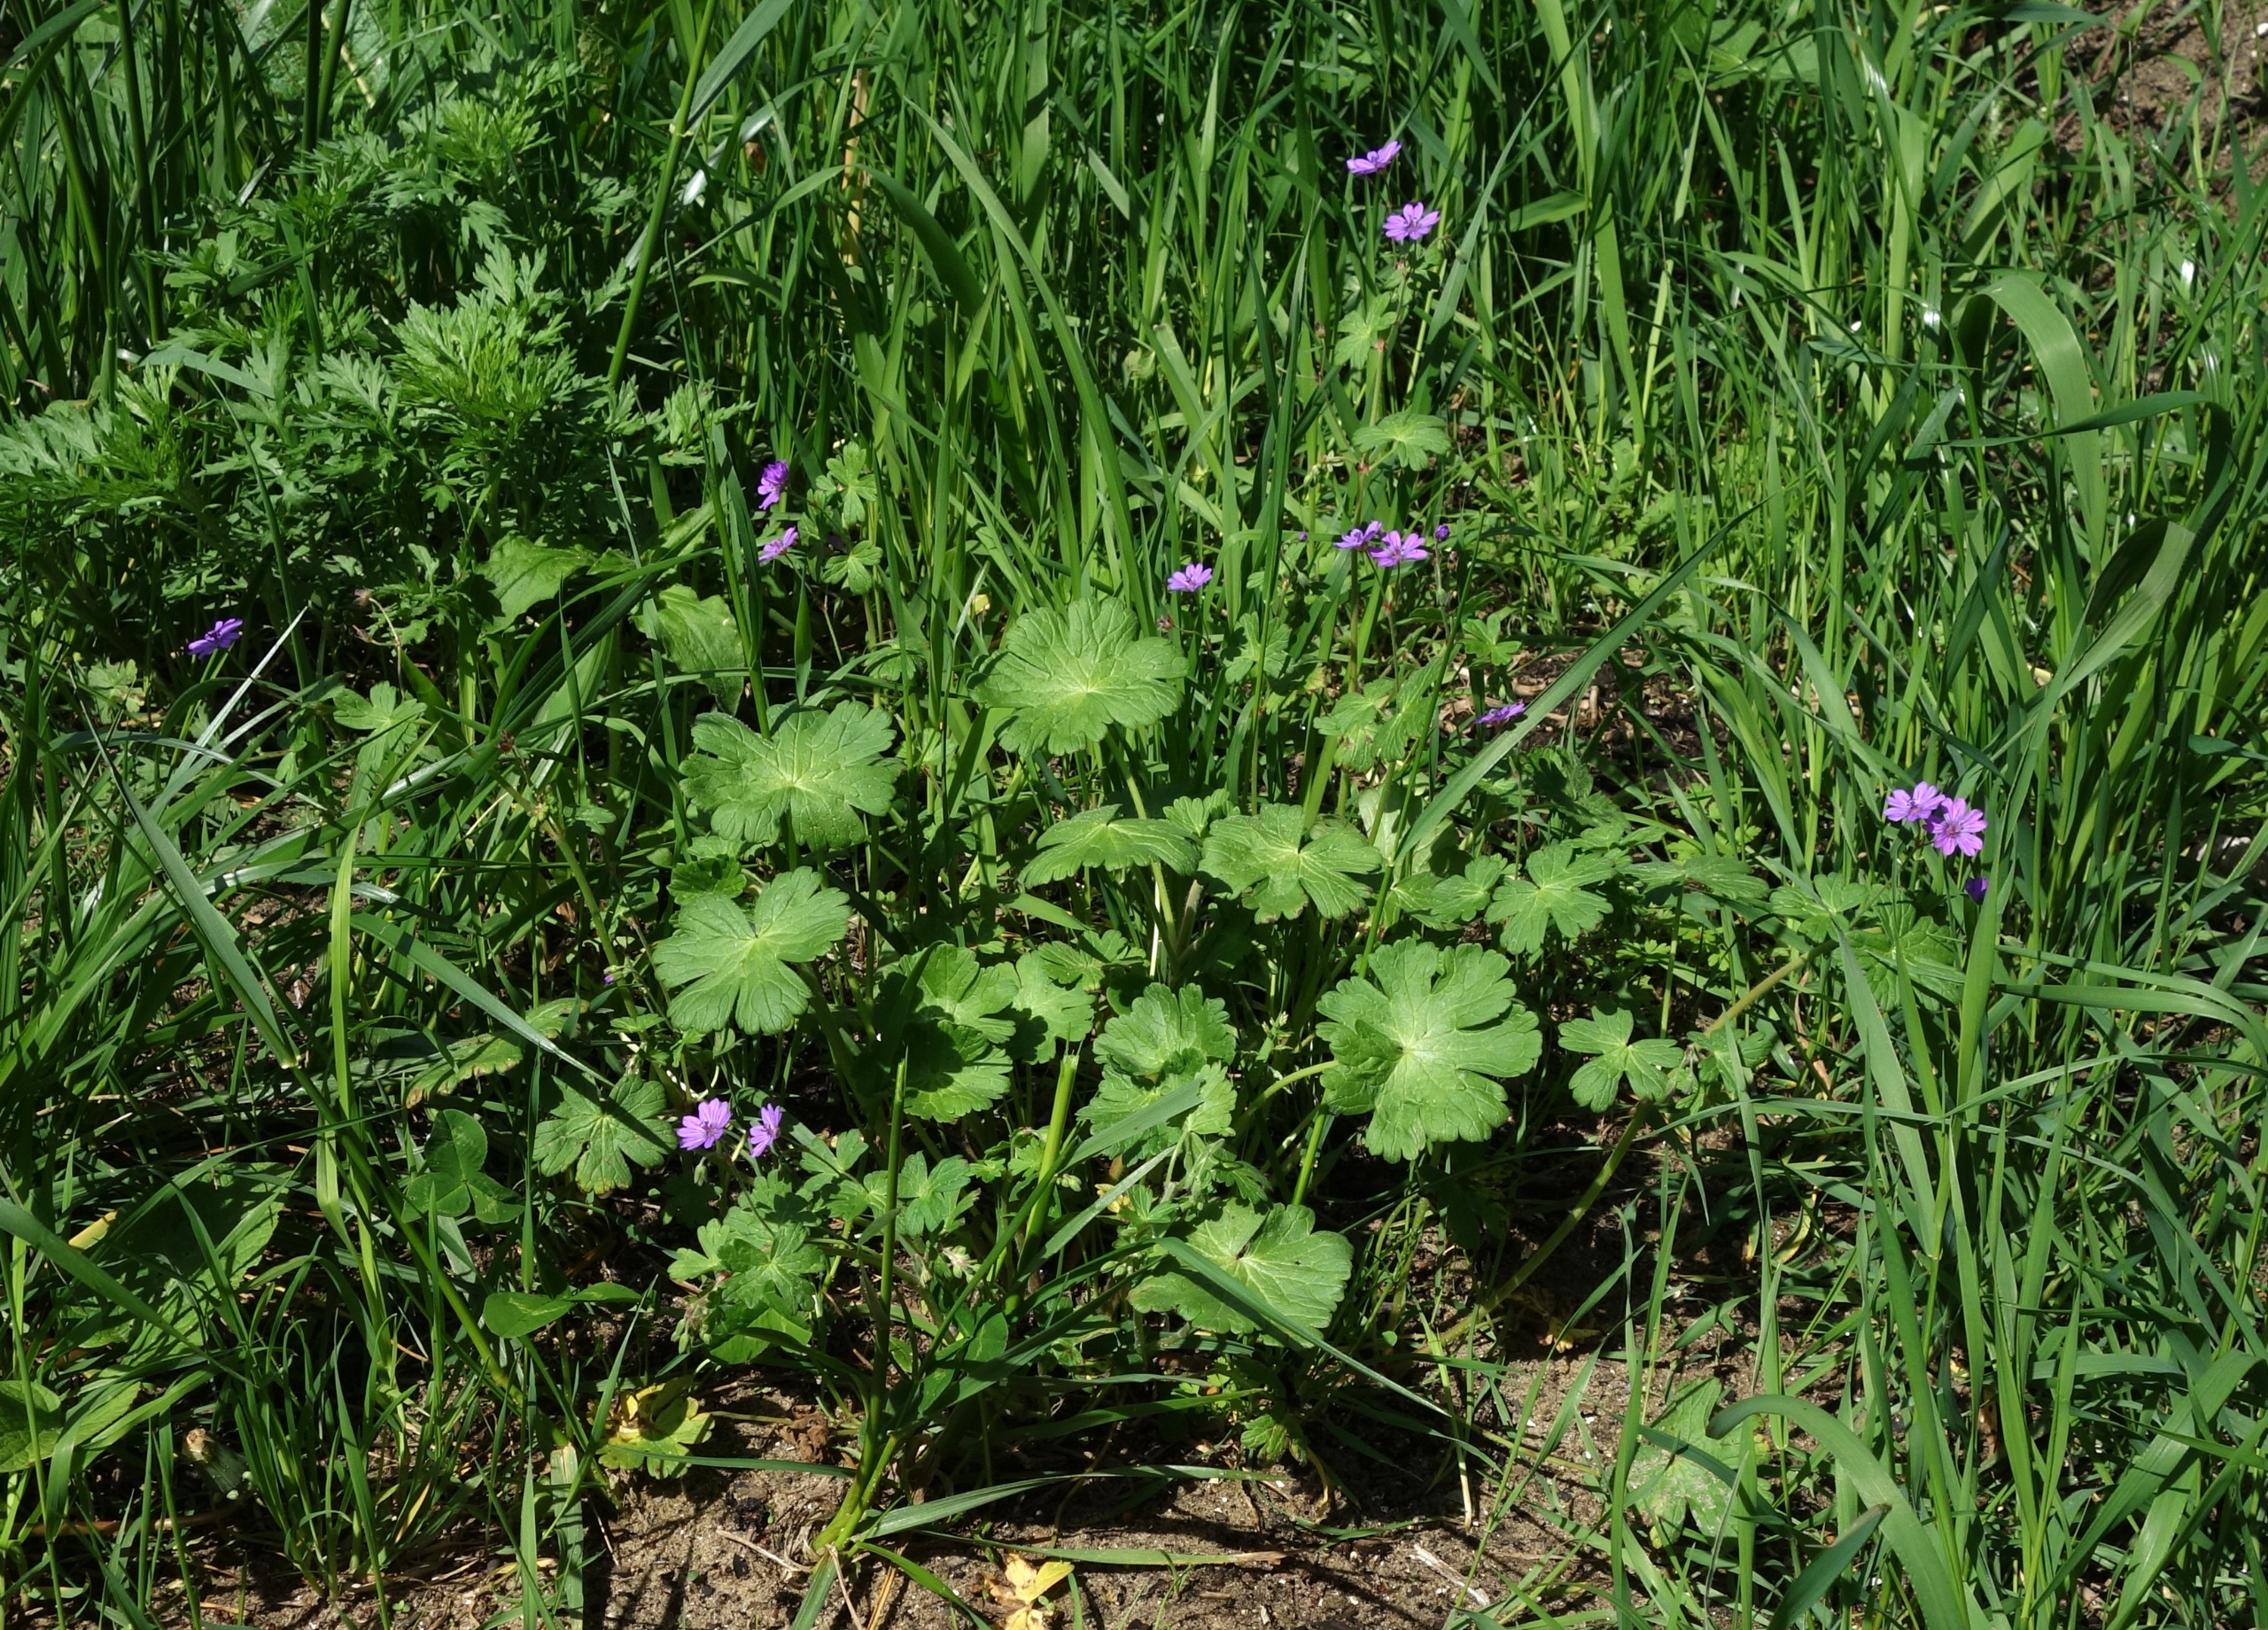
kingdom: Plantae
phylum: Tracheophyta
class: Magnoliopsida
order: Geraniales
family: Geraniaceae
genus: Geranium
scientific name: Geranium pyrenaicum
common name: Pyrenæisk storkenæb
